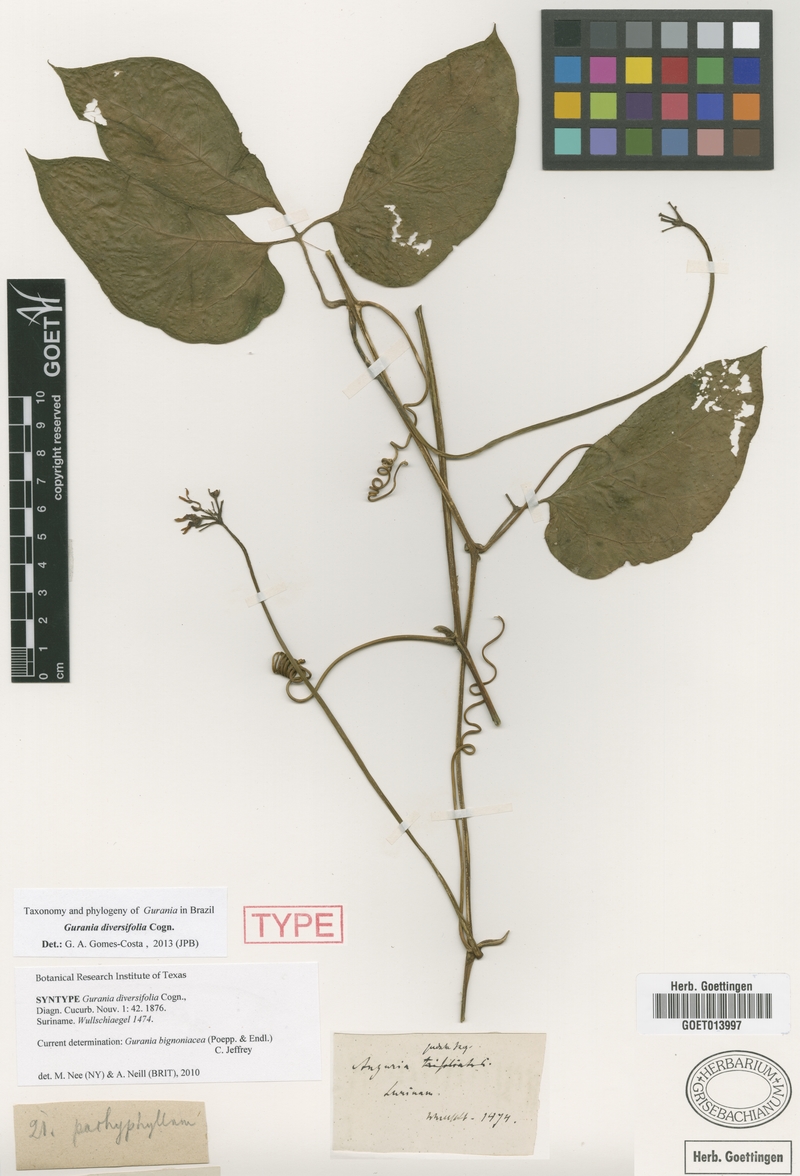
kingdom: Plantae
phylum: Tracheophyta
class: Magnoliopsida
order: Cucurbitales
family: Cucurbitaceae
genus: Gurania
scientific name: Gurania acuminata
